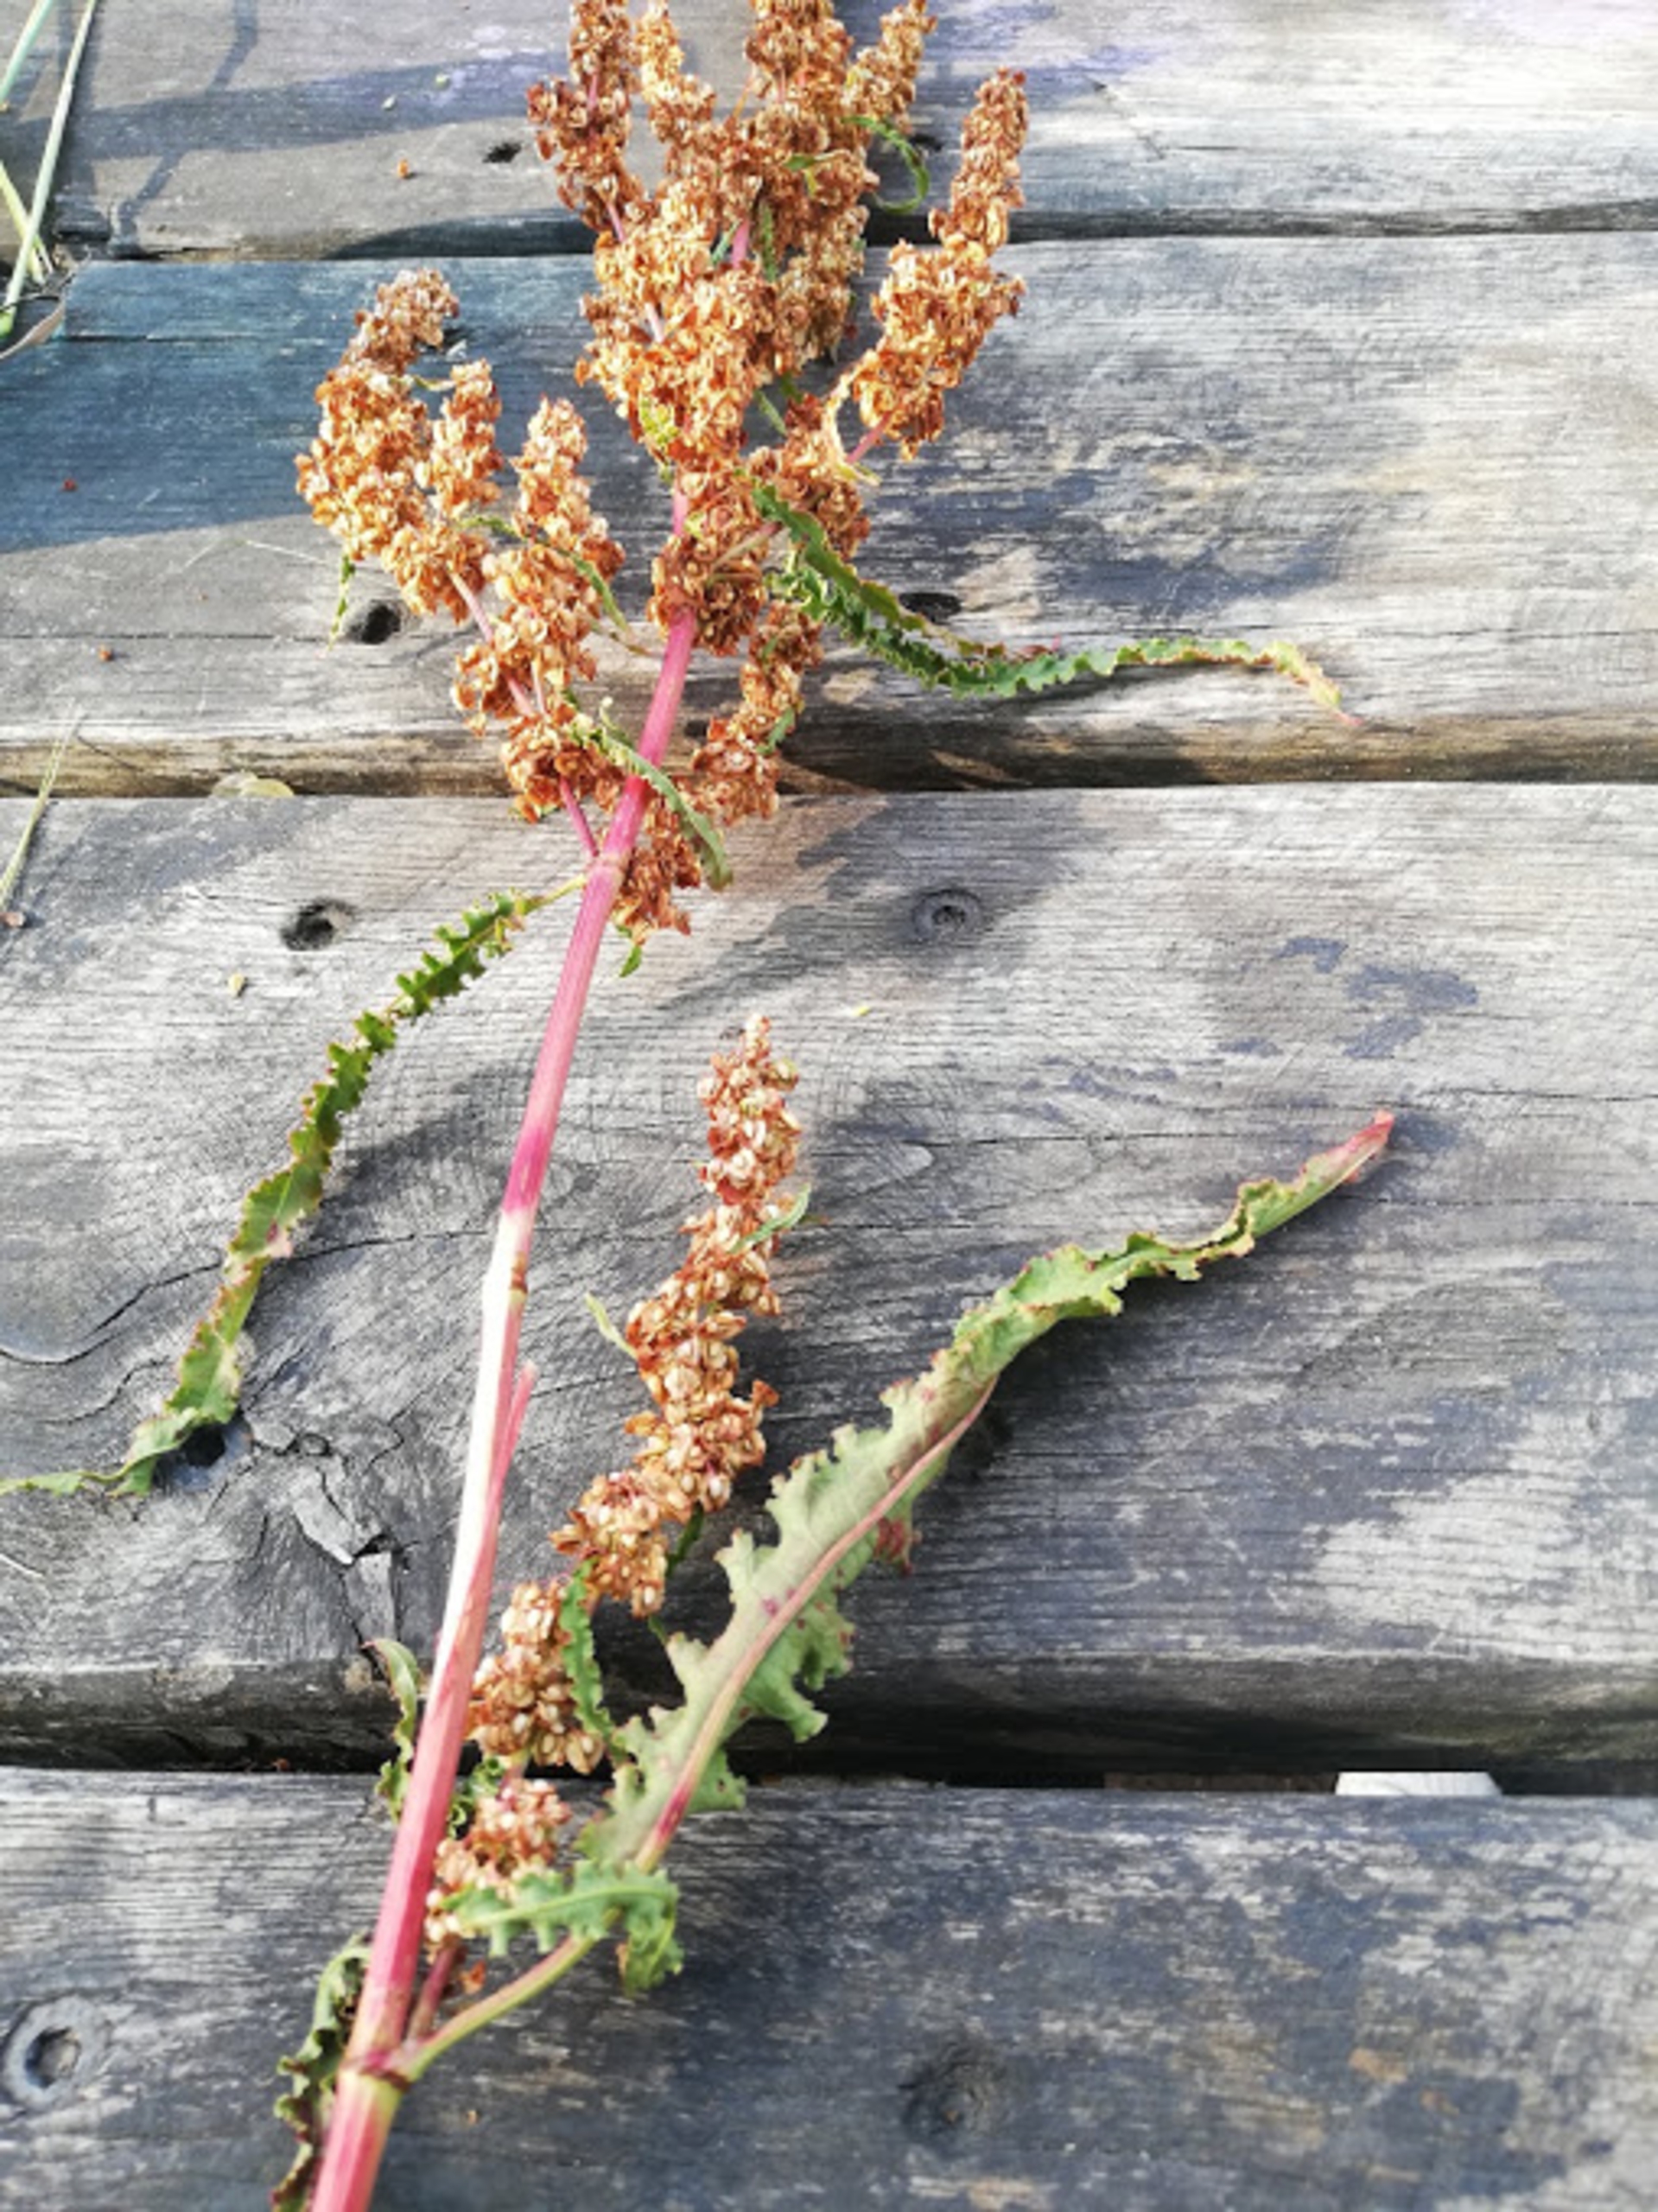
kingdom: Plantae
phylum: Tracheophyta
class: Magnoliopsida
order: Caryophyllales
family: Polygonaceae
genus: Rumex
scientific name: Rumex crispus
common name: Kruset skræppe
